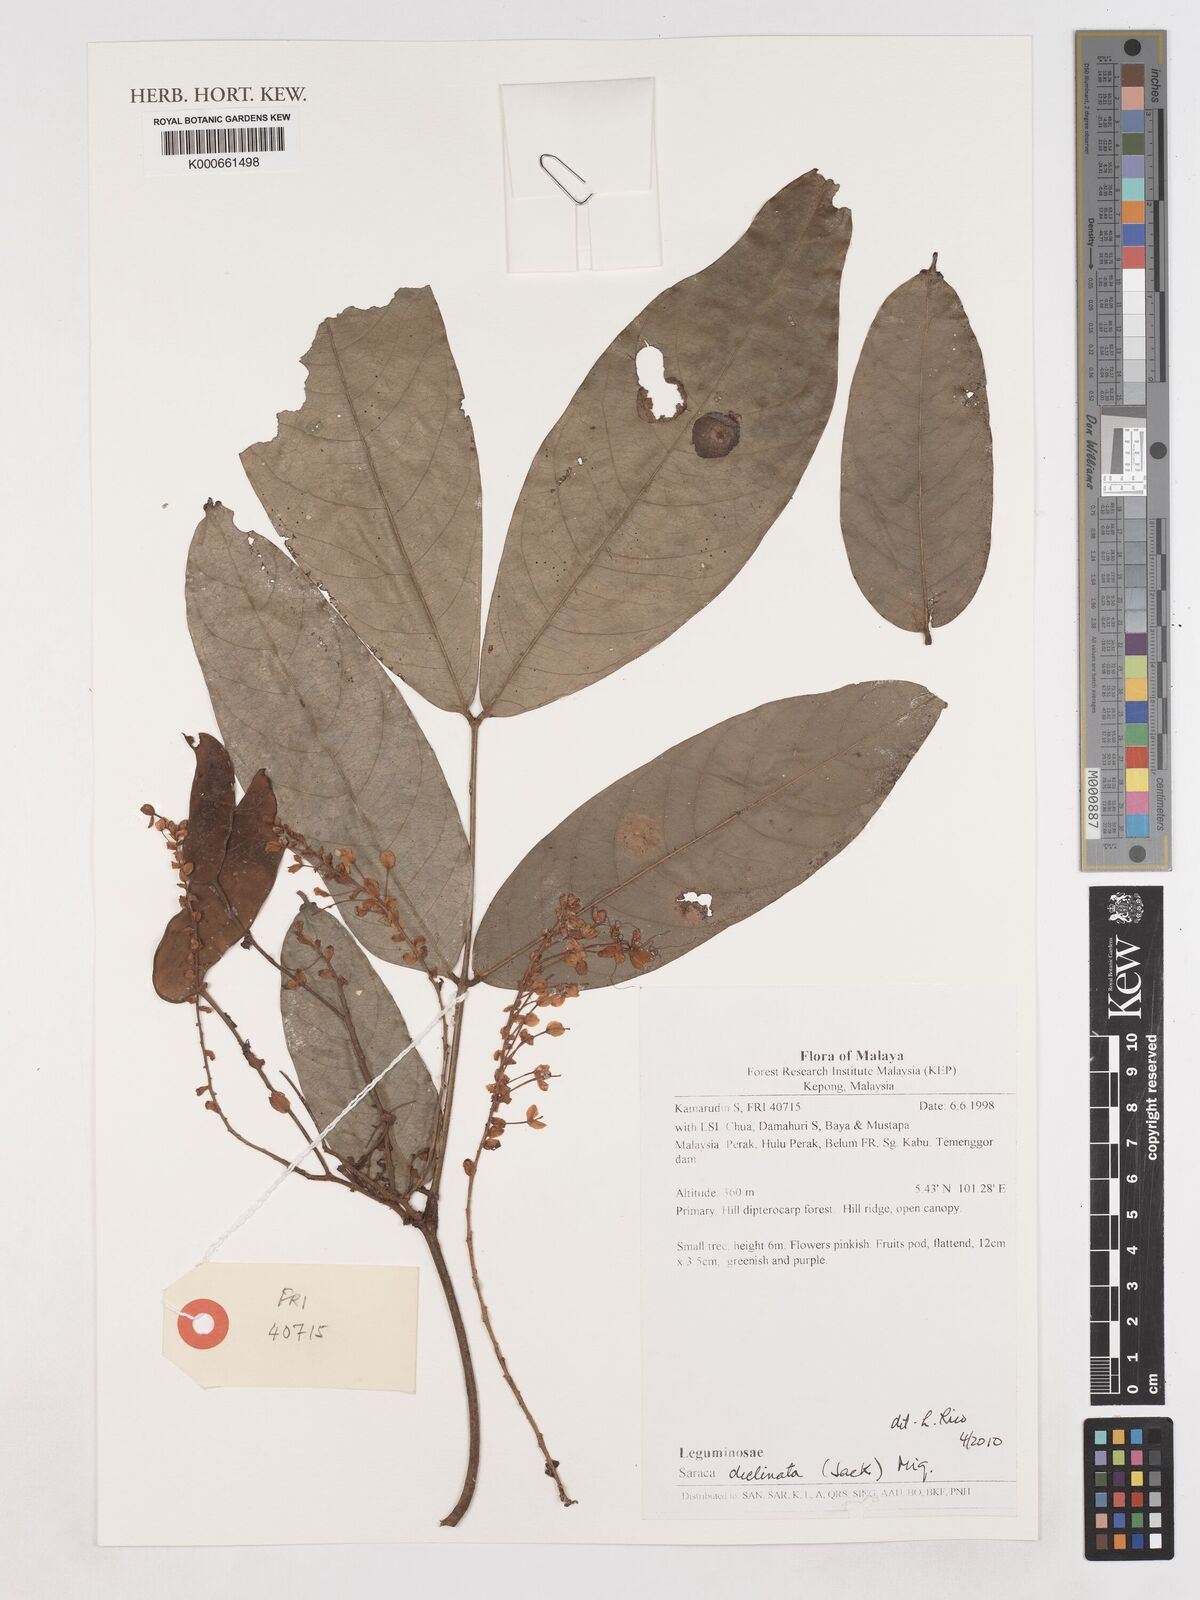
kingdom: Plantae
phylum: Tracheophyta
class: Magnoliopsida
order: Fabales
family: Fabaceae
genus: Saraca
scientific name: Saraca declinata
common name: Red saraca
